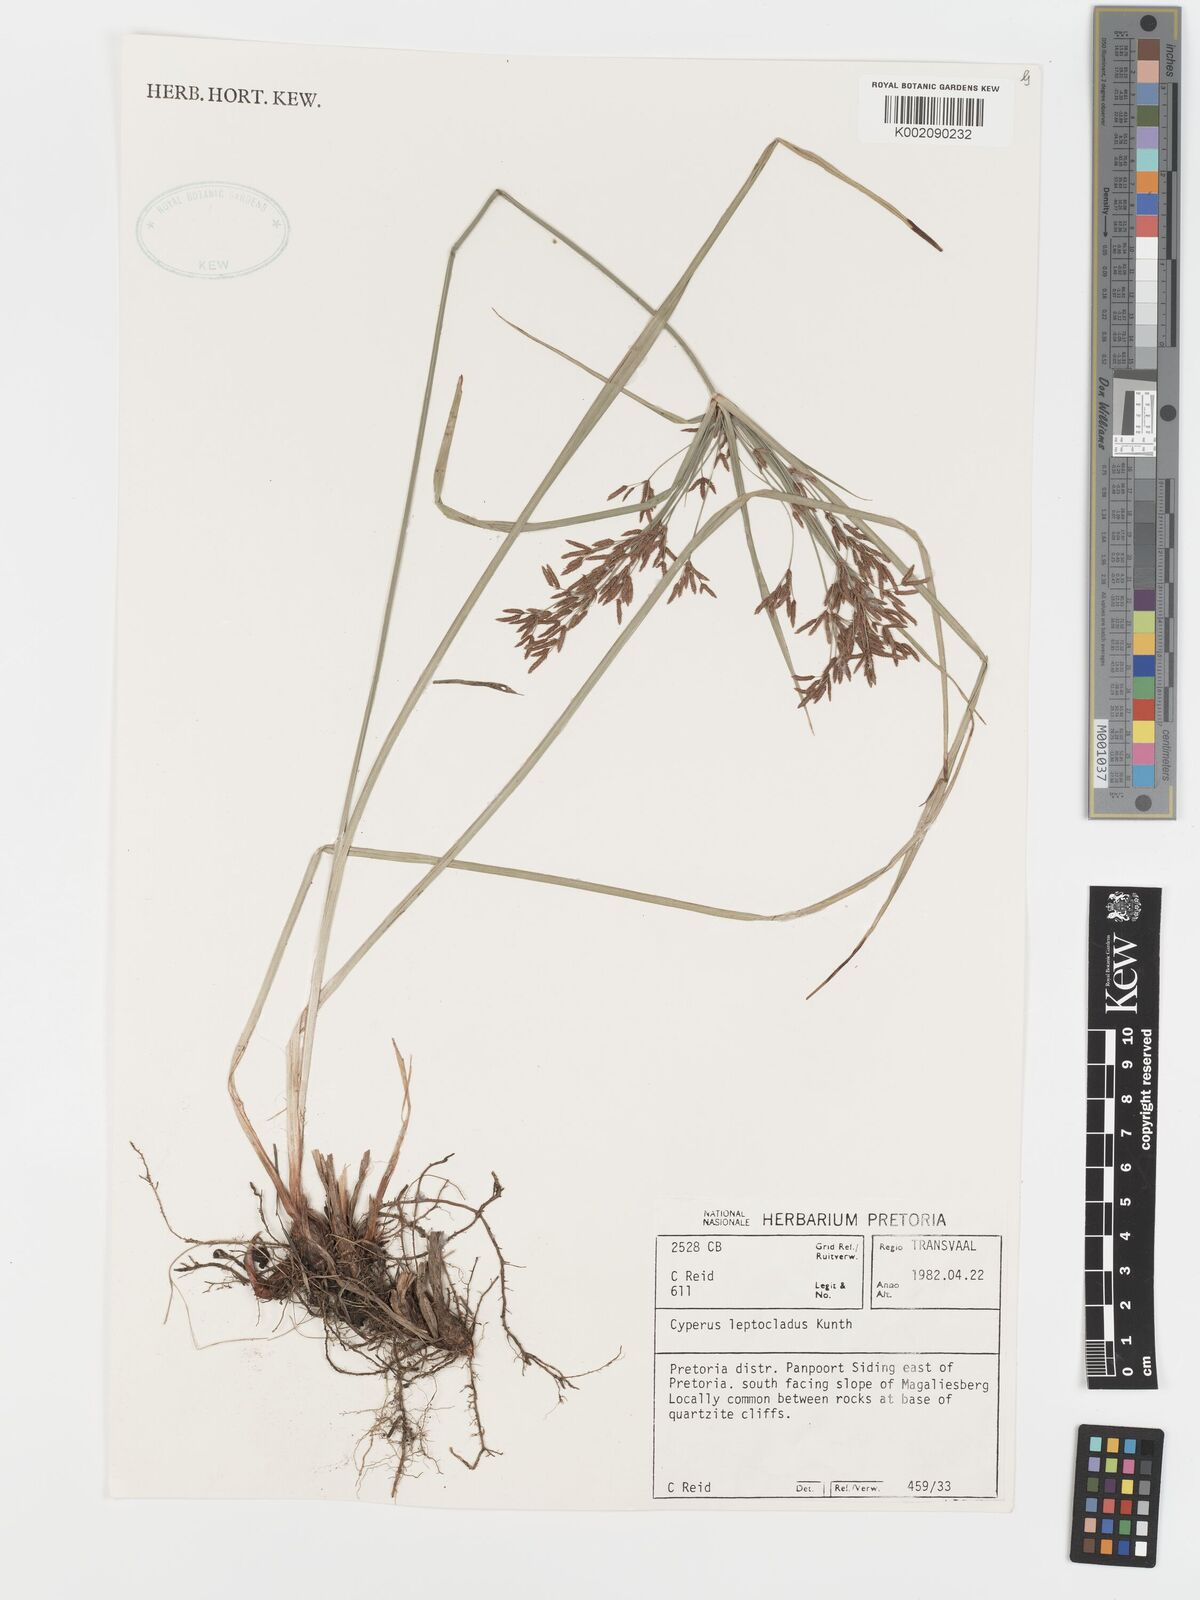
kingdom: Plantae
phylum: Tracheophyta
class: Liliopsida
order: Poales
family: Cyperaceae
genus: Cyperus
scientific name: Cyperus leptocladus
